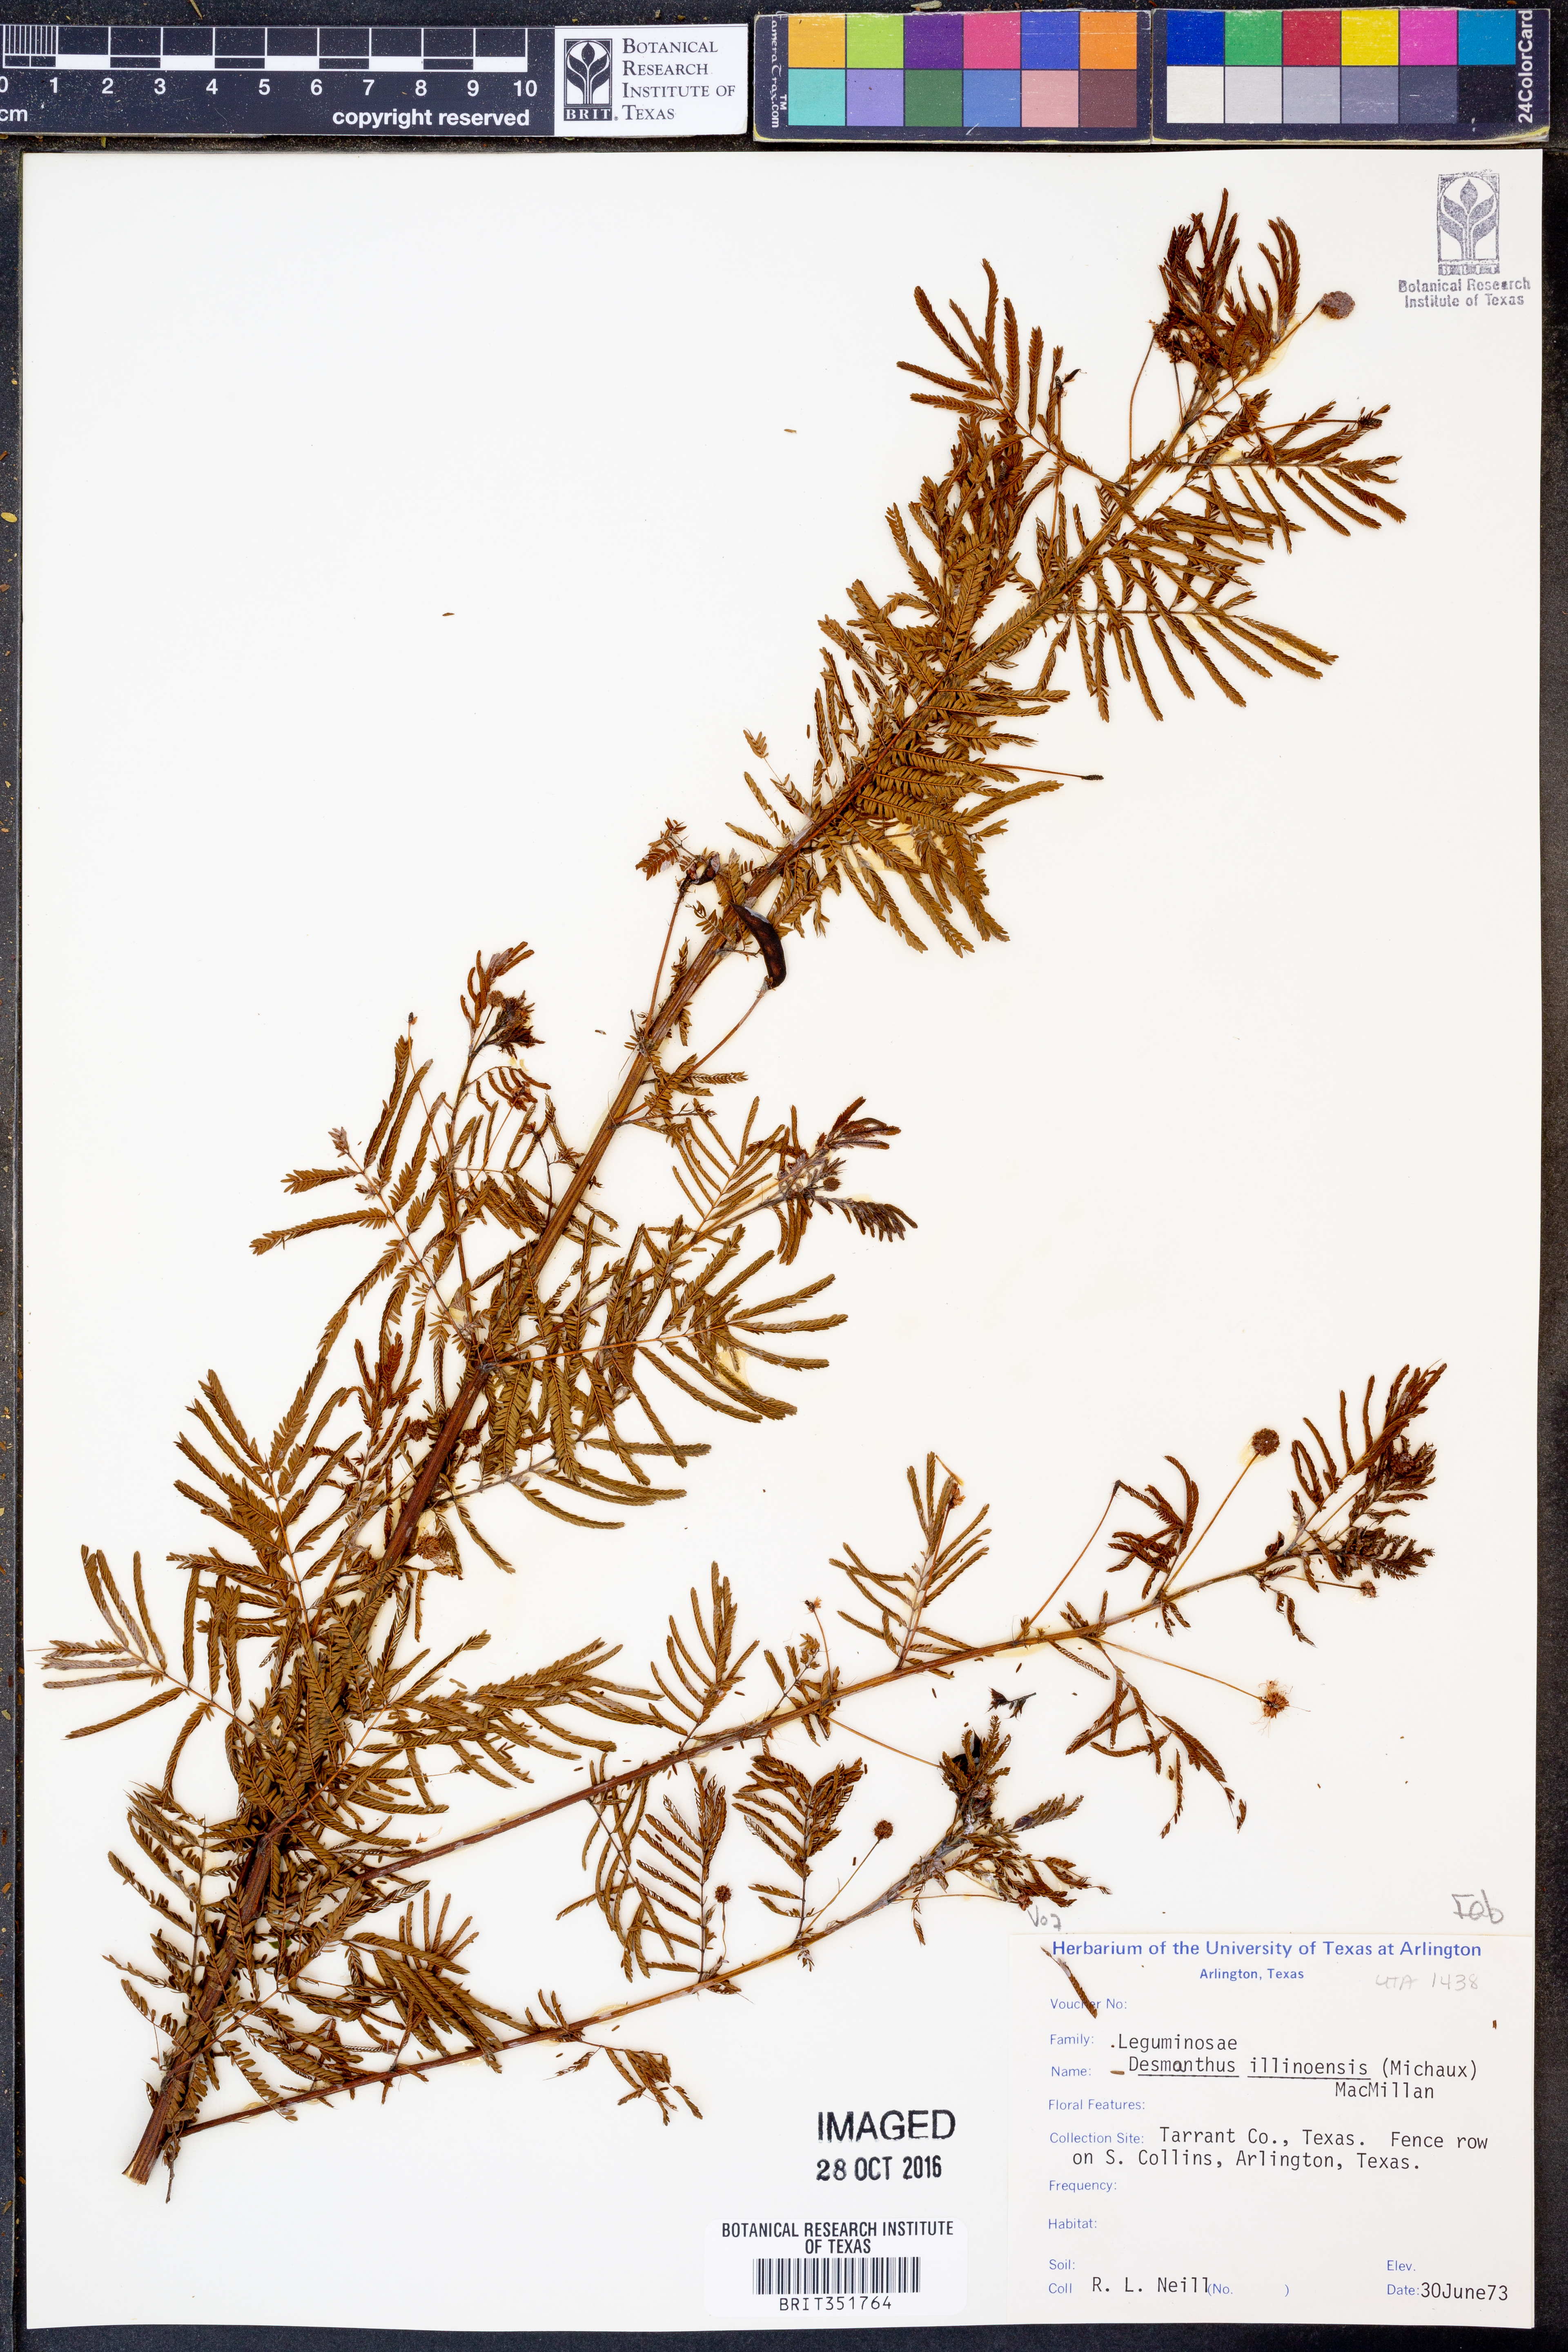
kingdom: Plantae
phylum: Tracheophyta
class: Magnoliopsida
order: Fabales
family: Fabaceae
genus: Desmanthus
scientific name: Desmanthus illinoensis
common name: Illinois bundle-flower
